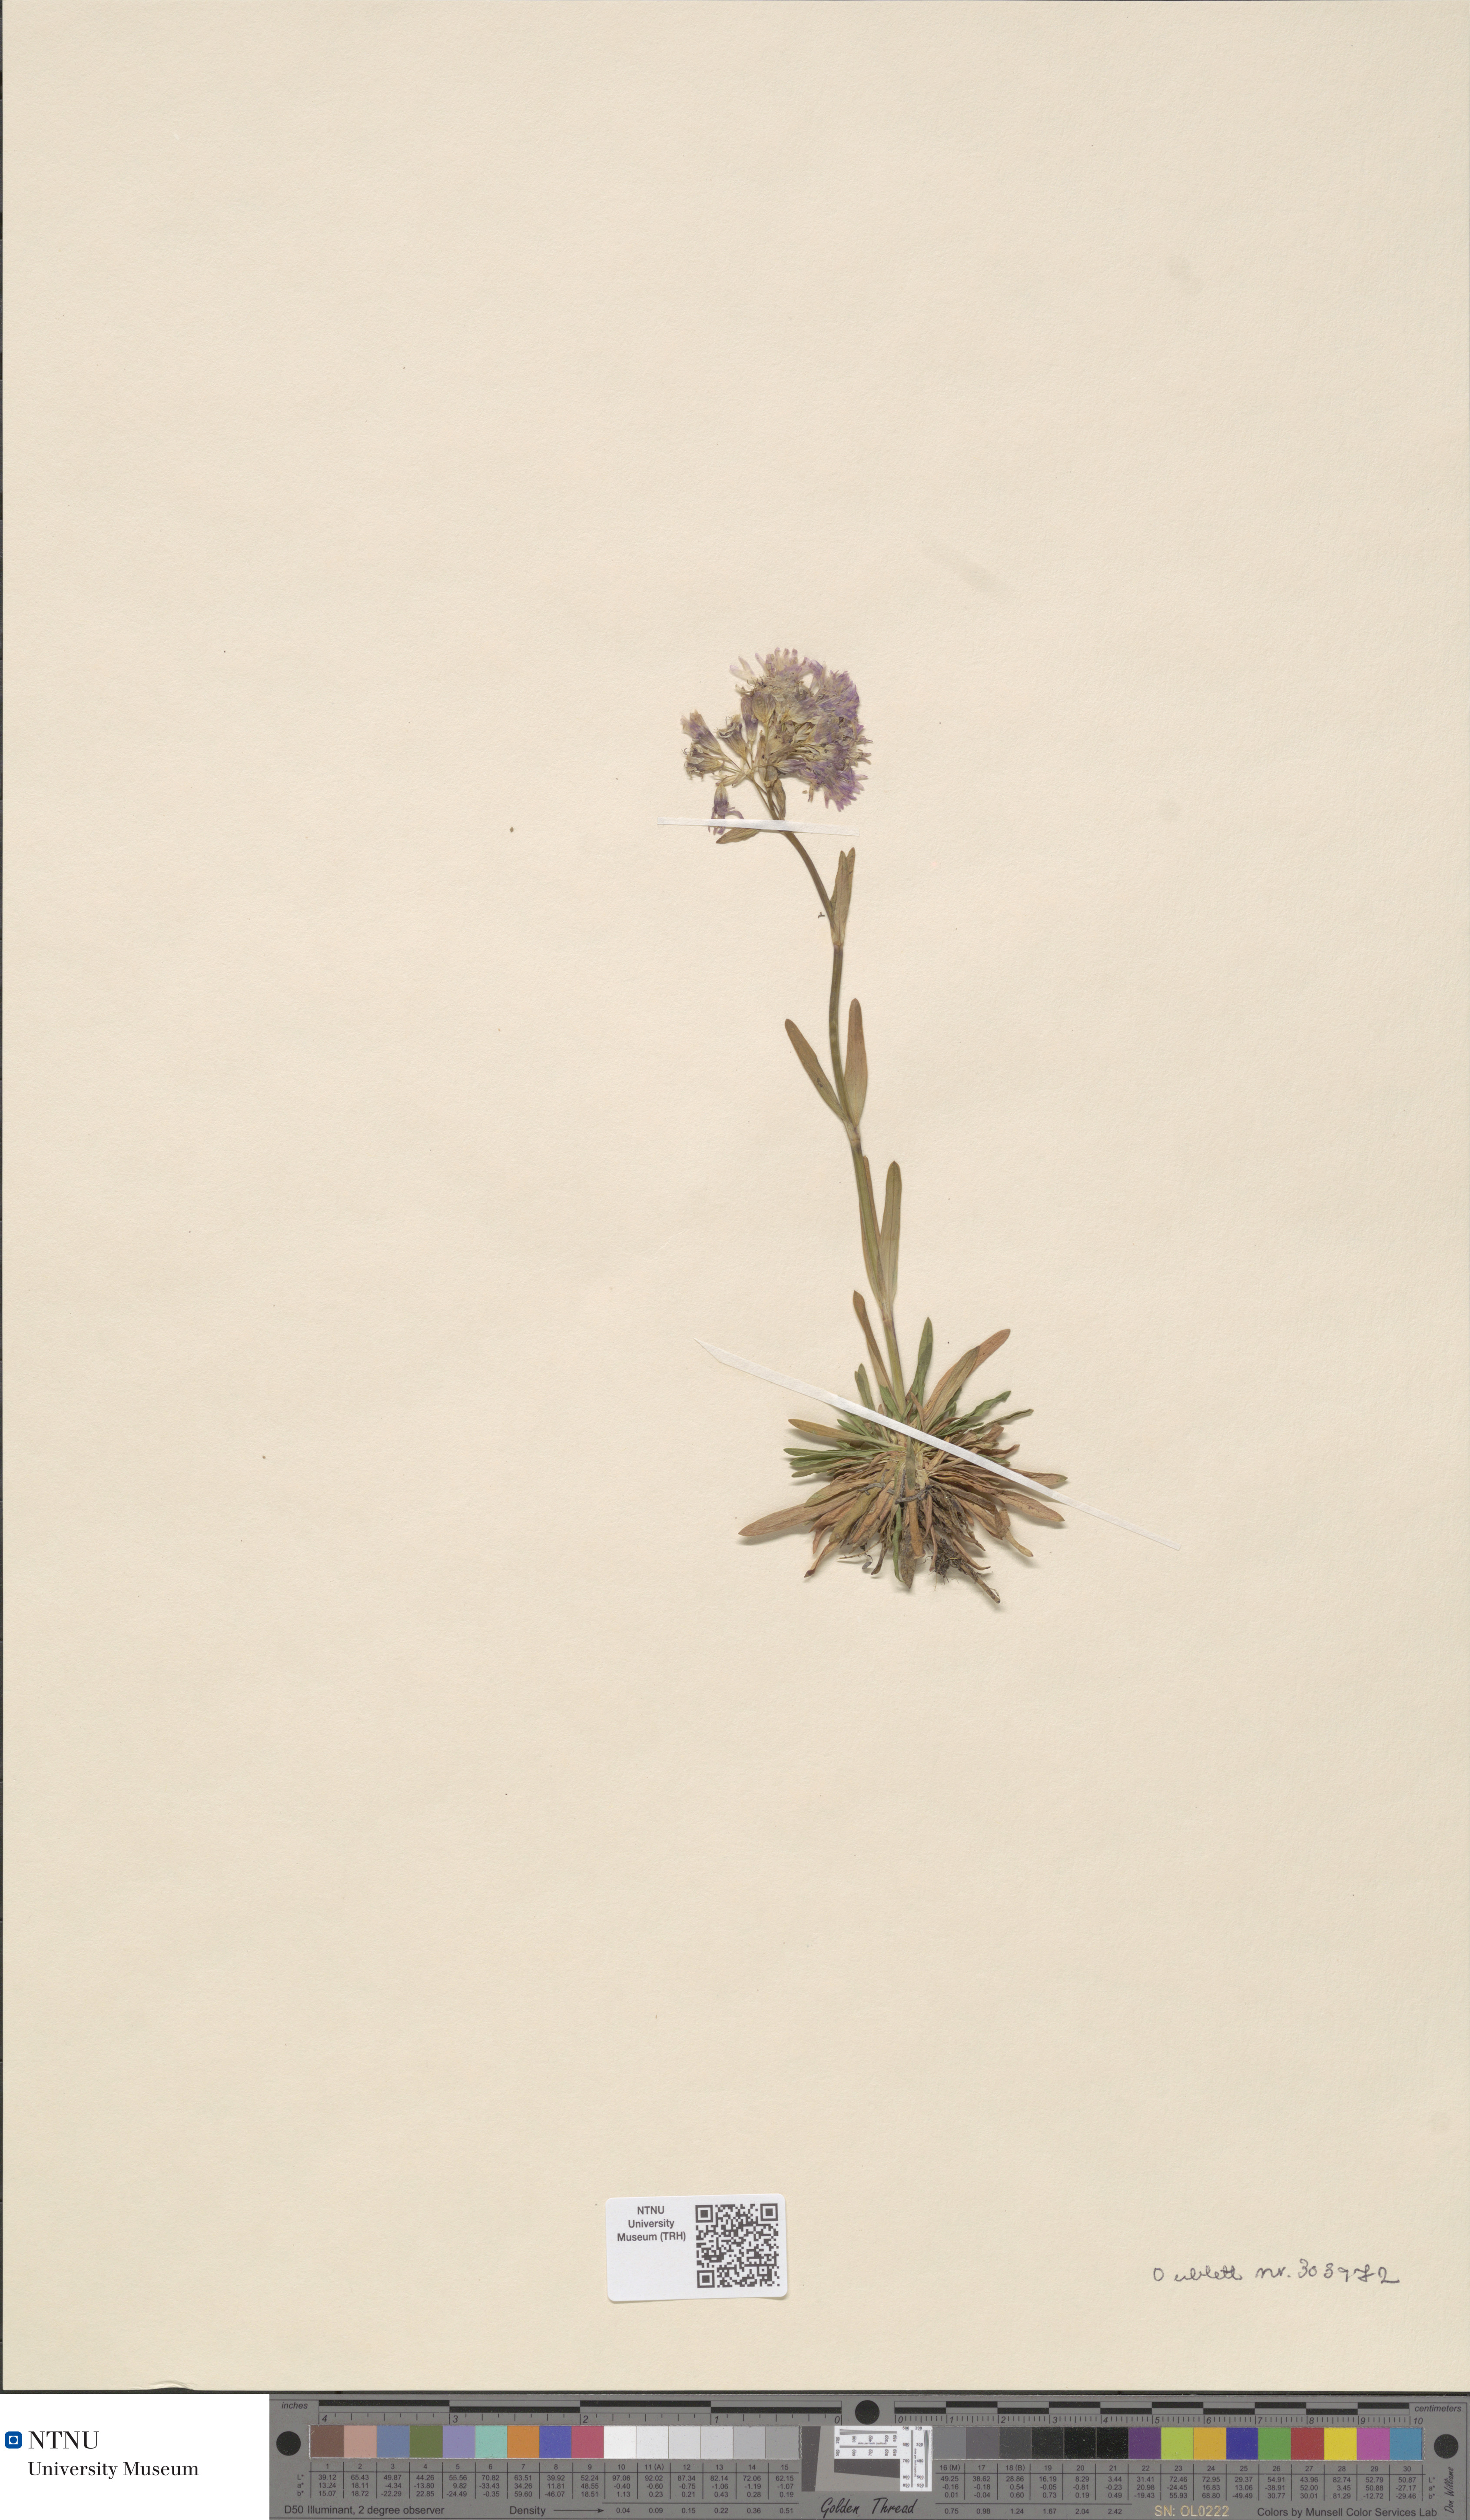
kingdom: Plantae
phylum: Tracheophyta
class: Magnoliopsida
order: Caryophyllales
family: Caryophyllaceae
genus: Viscaria
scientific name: Viscaria alpina
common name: Alpine campion
